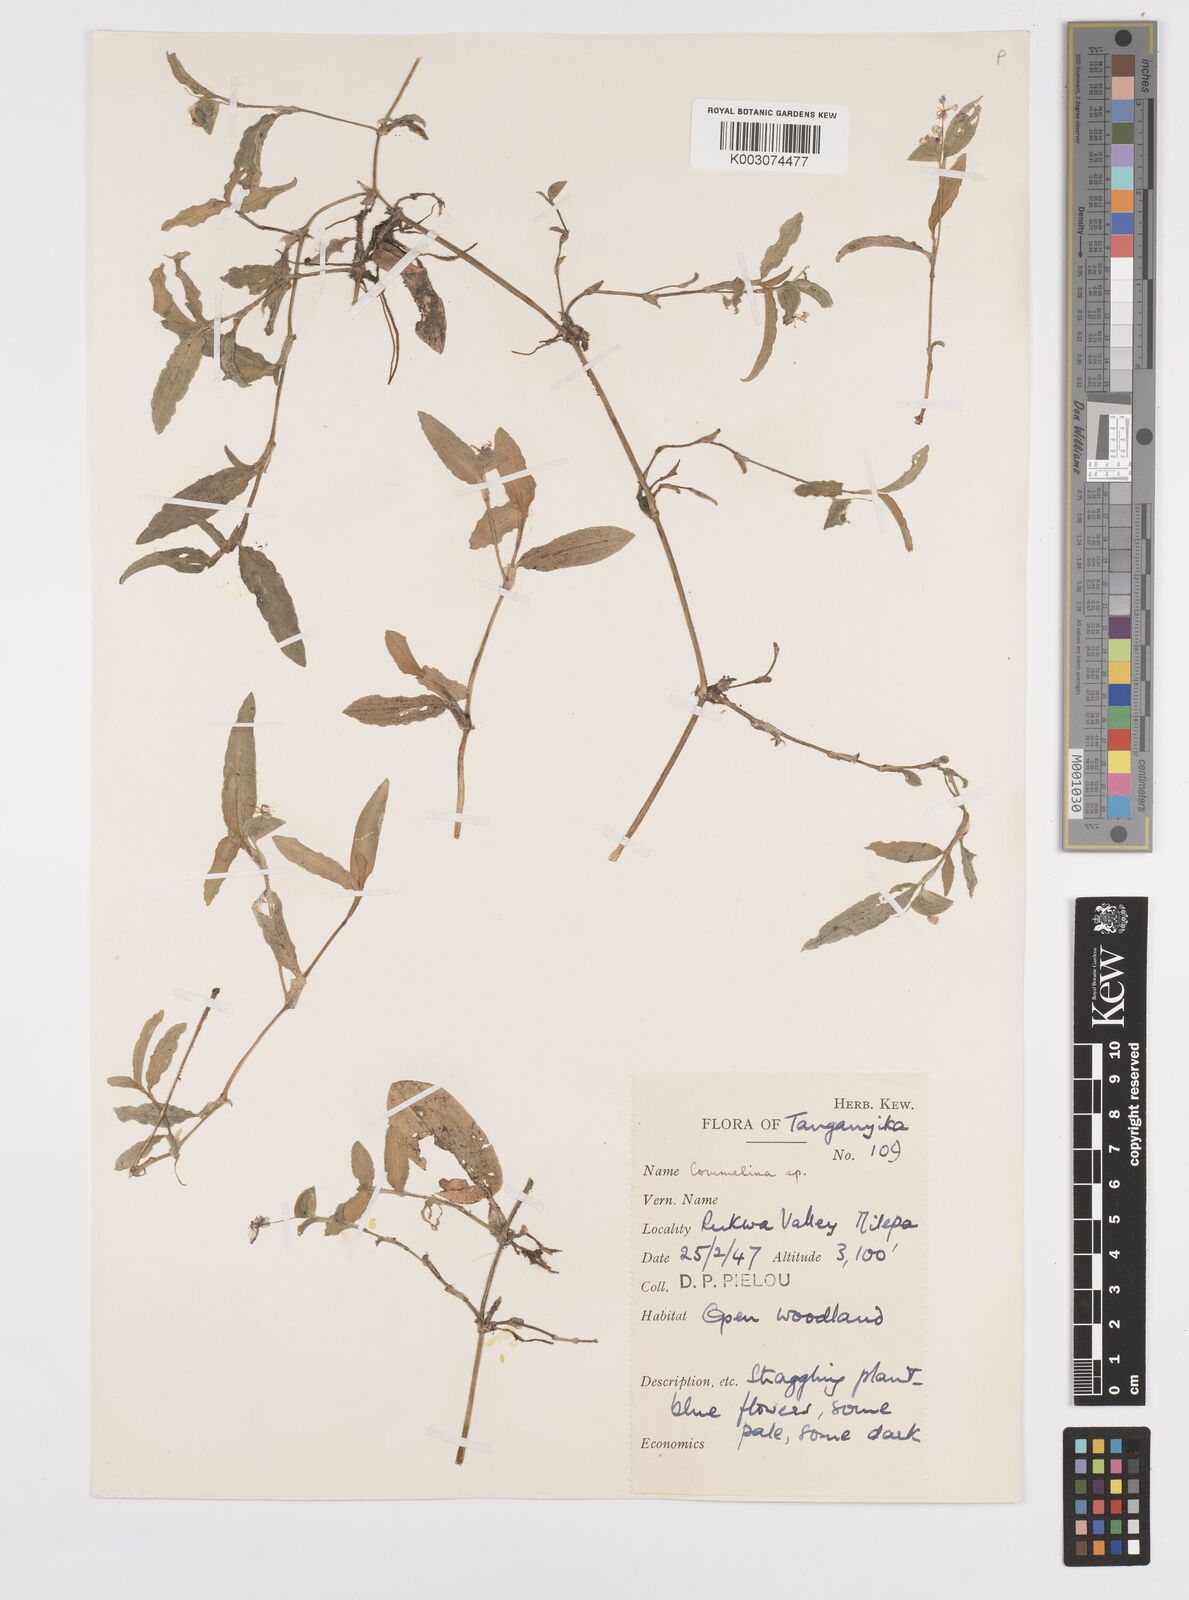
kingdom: Plantae
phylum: Tracheophyta
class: Liliopsida
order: Commelinales
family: Commelinaceae
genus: Commelina
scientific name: Commelina imberbis
